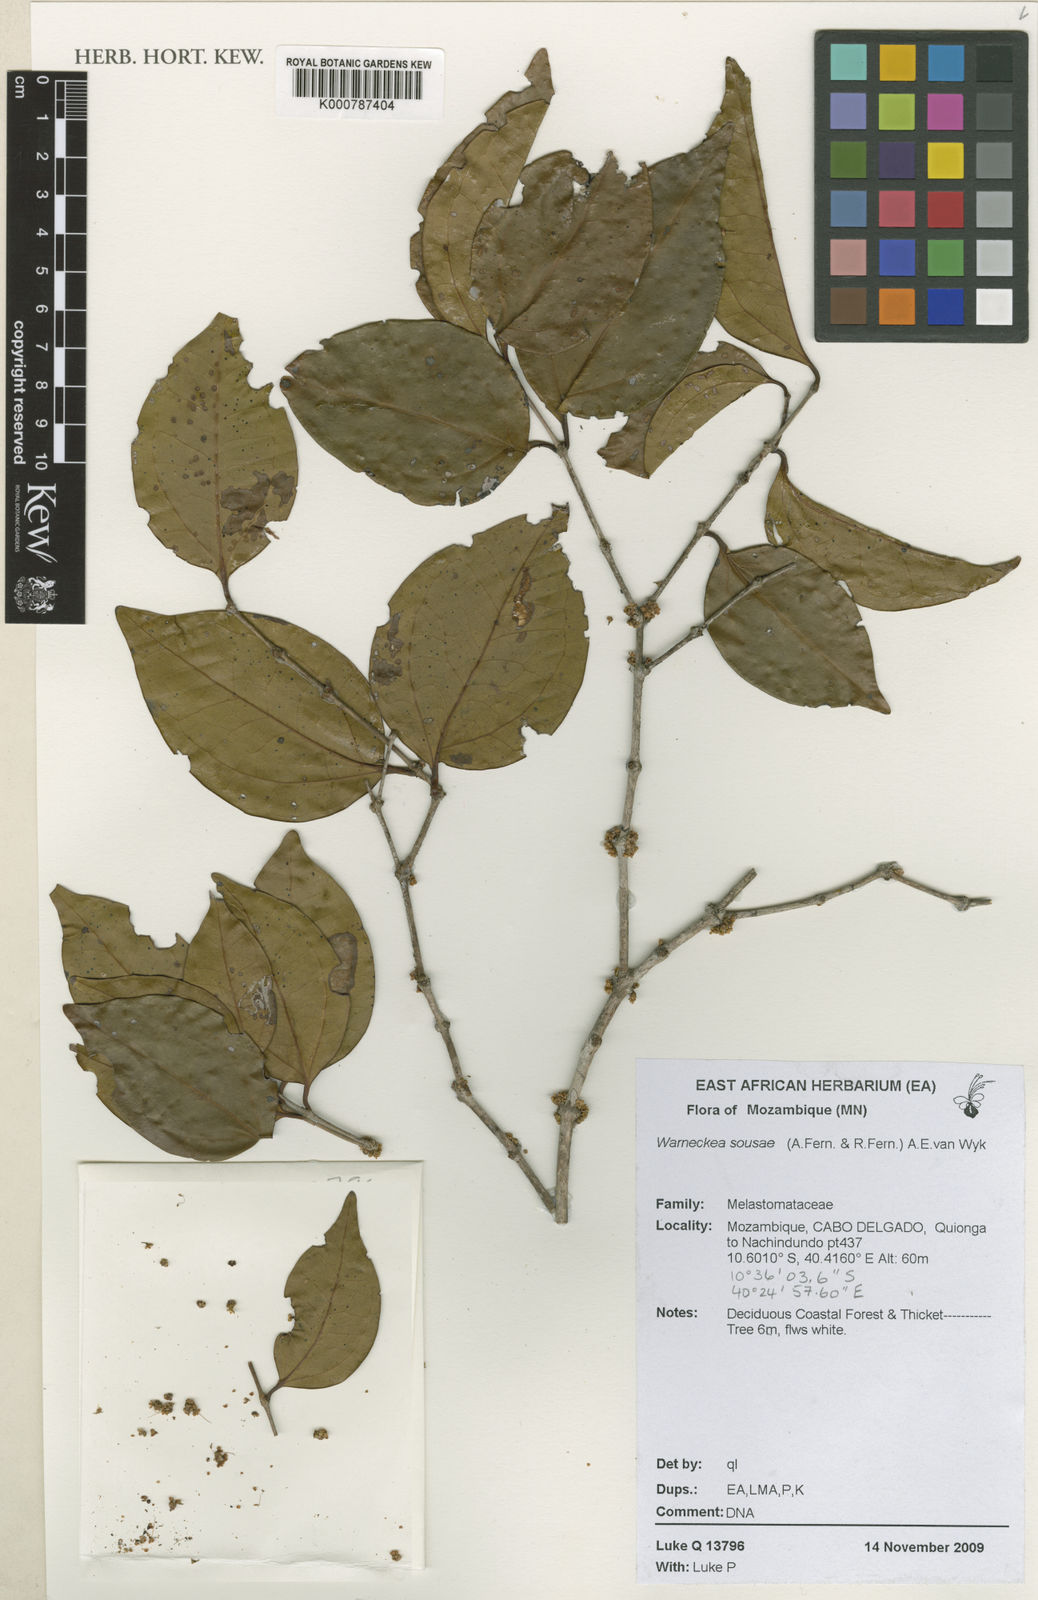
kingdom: Plantae
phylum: Tracheophyta
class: Magnoliopsida
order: Myrtales
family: Melastomataceae
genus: Warneckea
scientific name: Warneckea sousae
